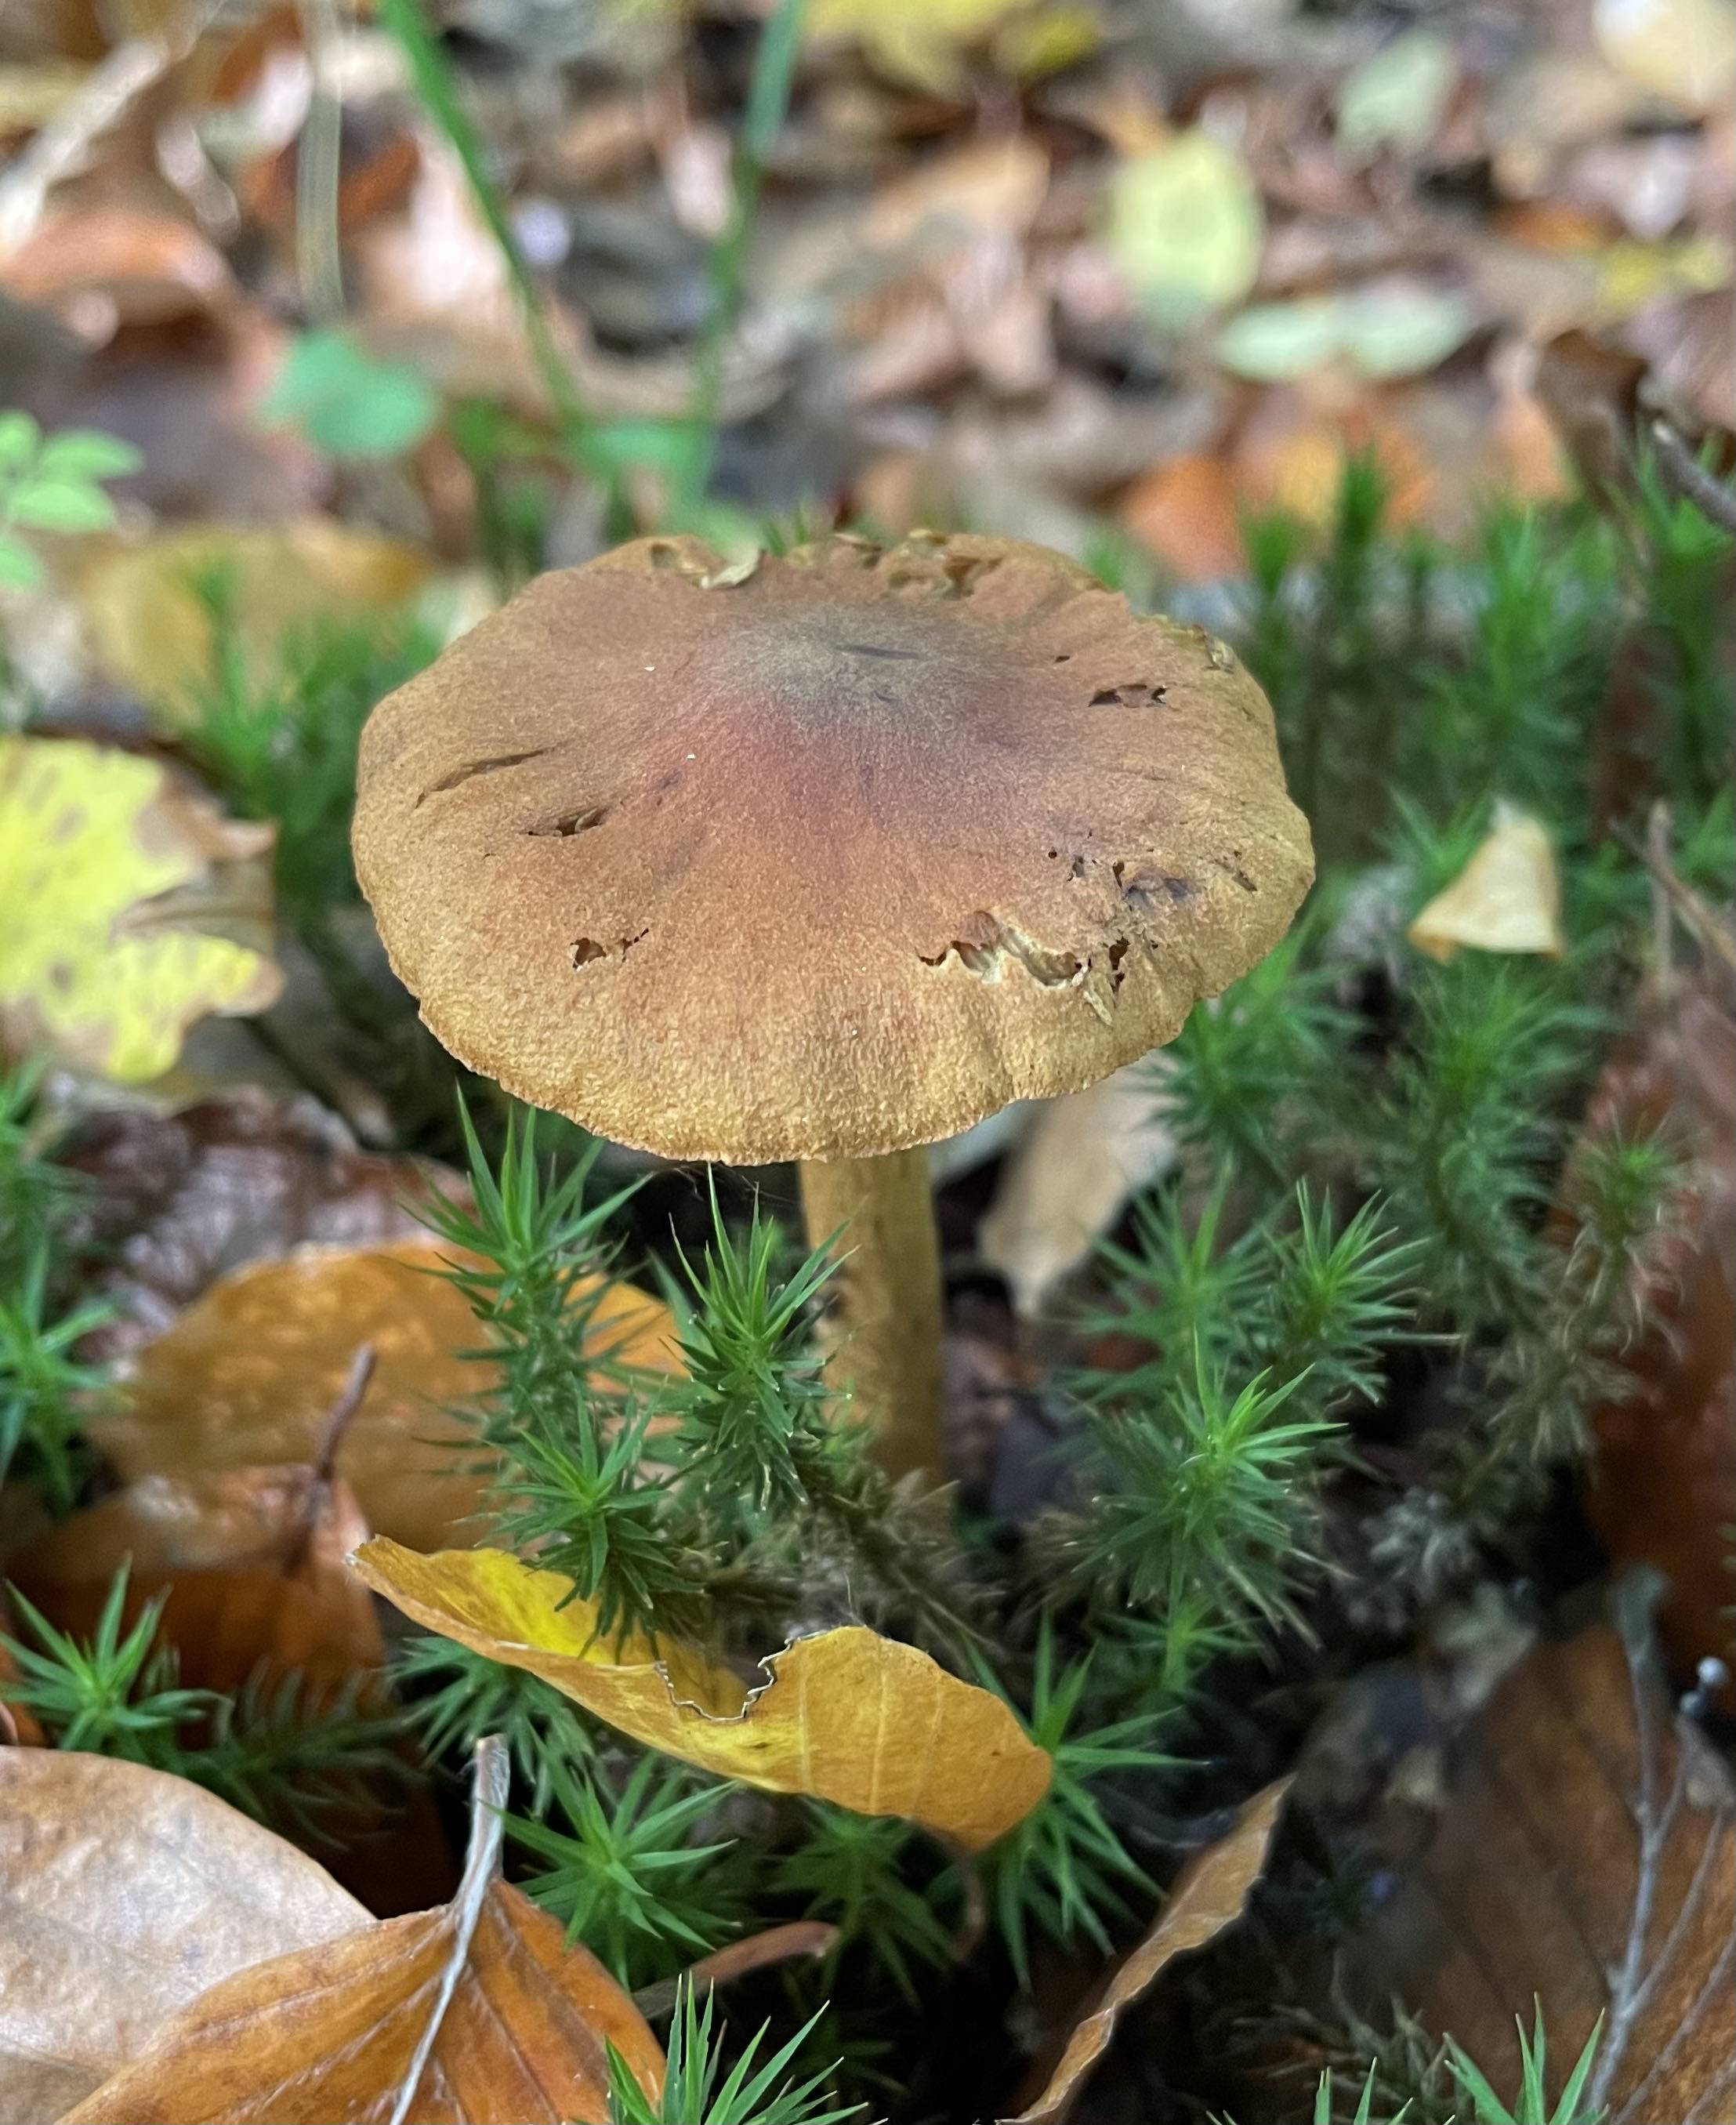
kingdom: Fungi
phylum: Basidiomycota
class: Agaricomycetes
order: Agaricales
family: Cortinariaceae
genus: Cortinarius
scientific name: Cortinarius
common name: cinnoberbladet slørhat
